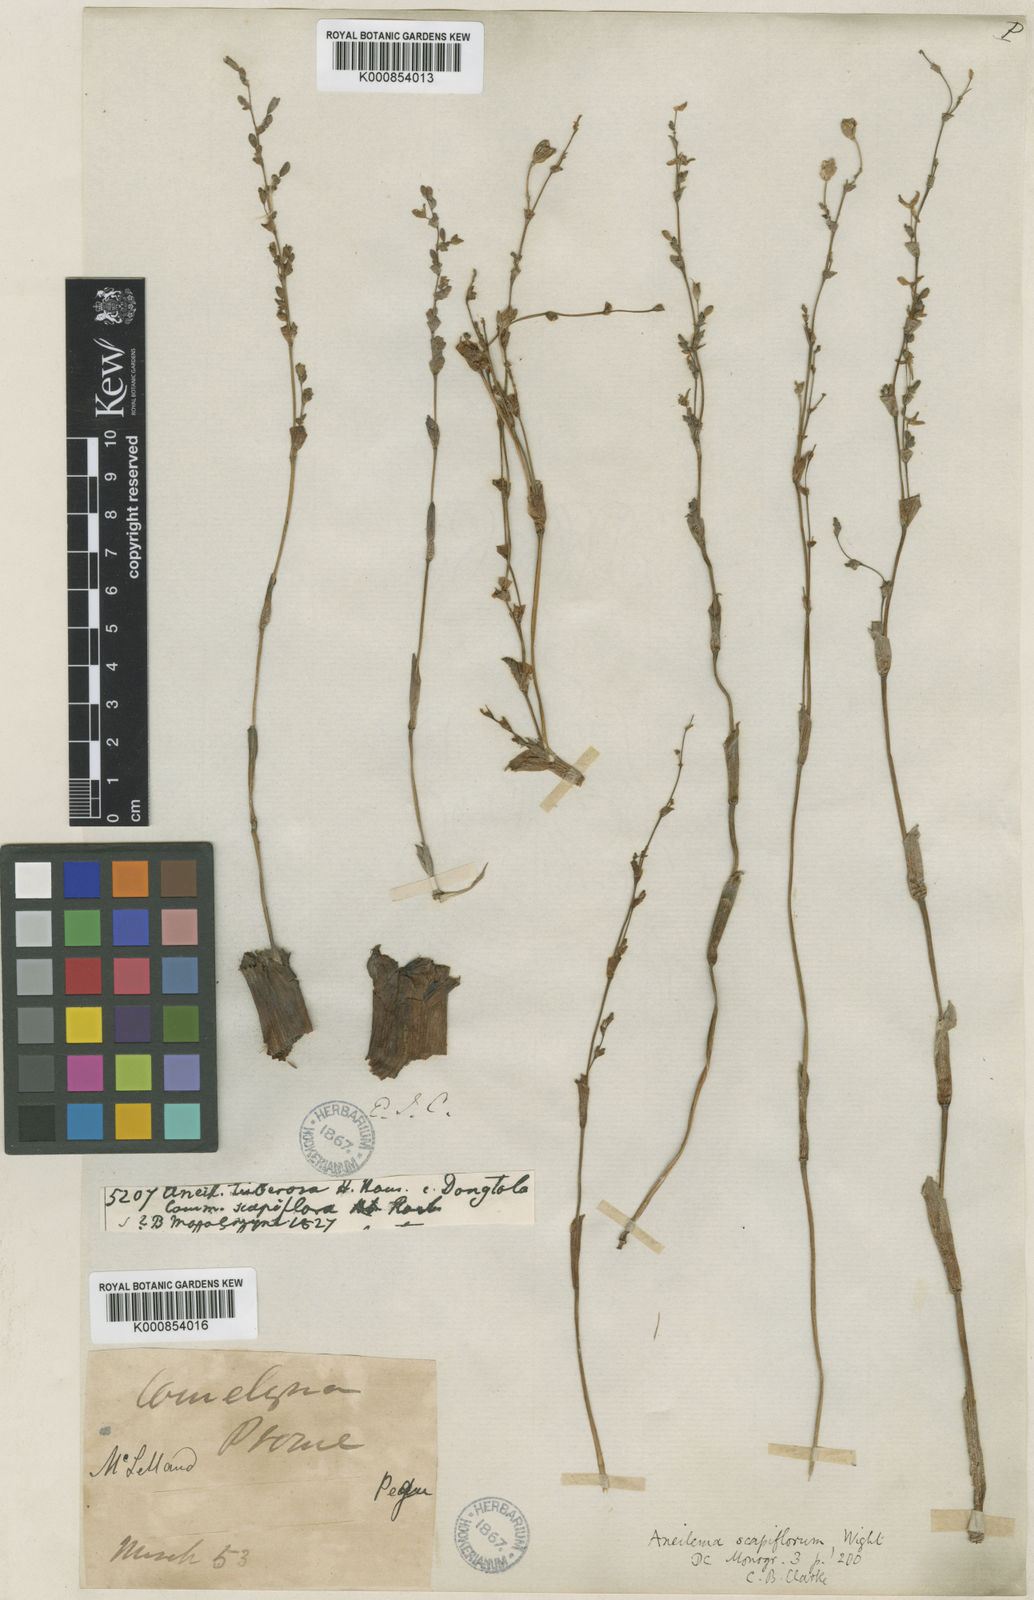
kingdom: Plantae
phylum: Tracheophyta
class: Liliopsida
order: Commelinales
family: Commelinaceae
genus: Murdannia
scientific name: Murdannia edulis
